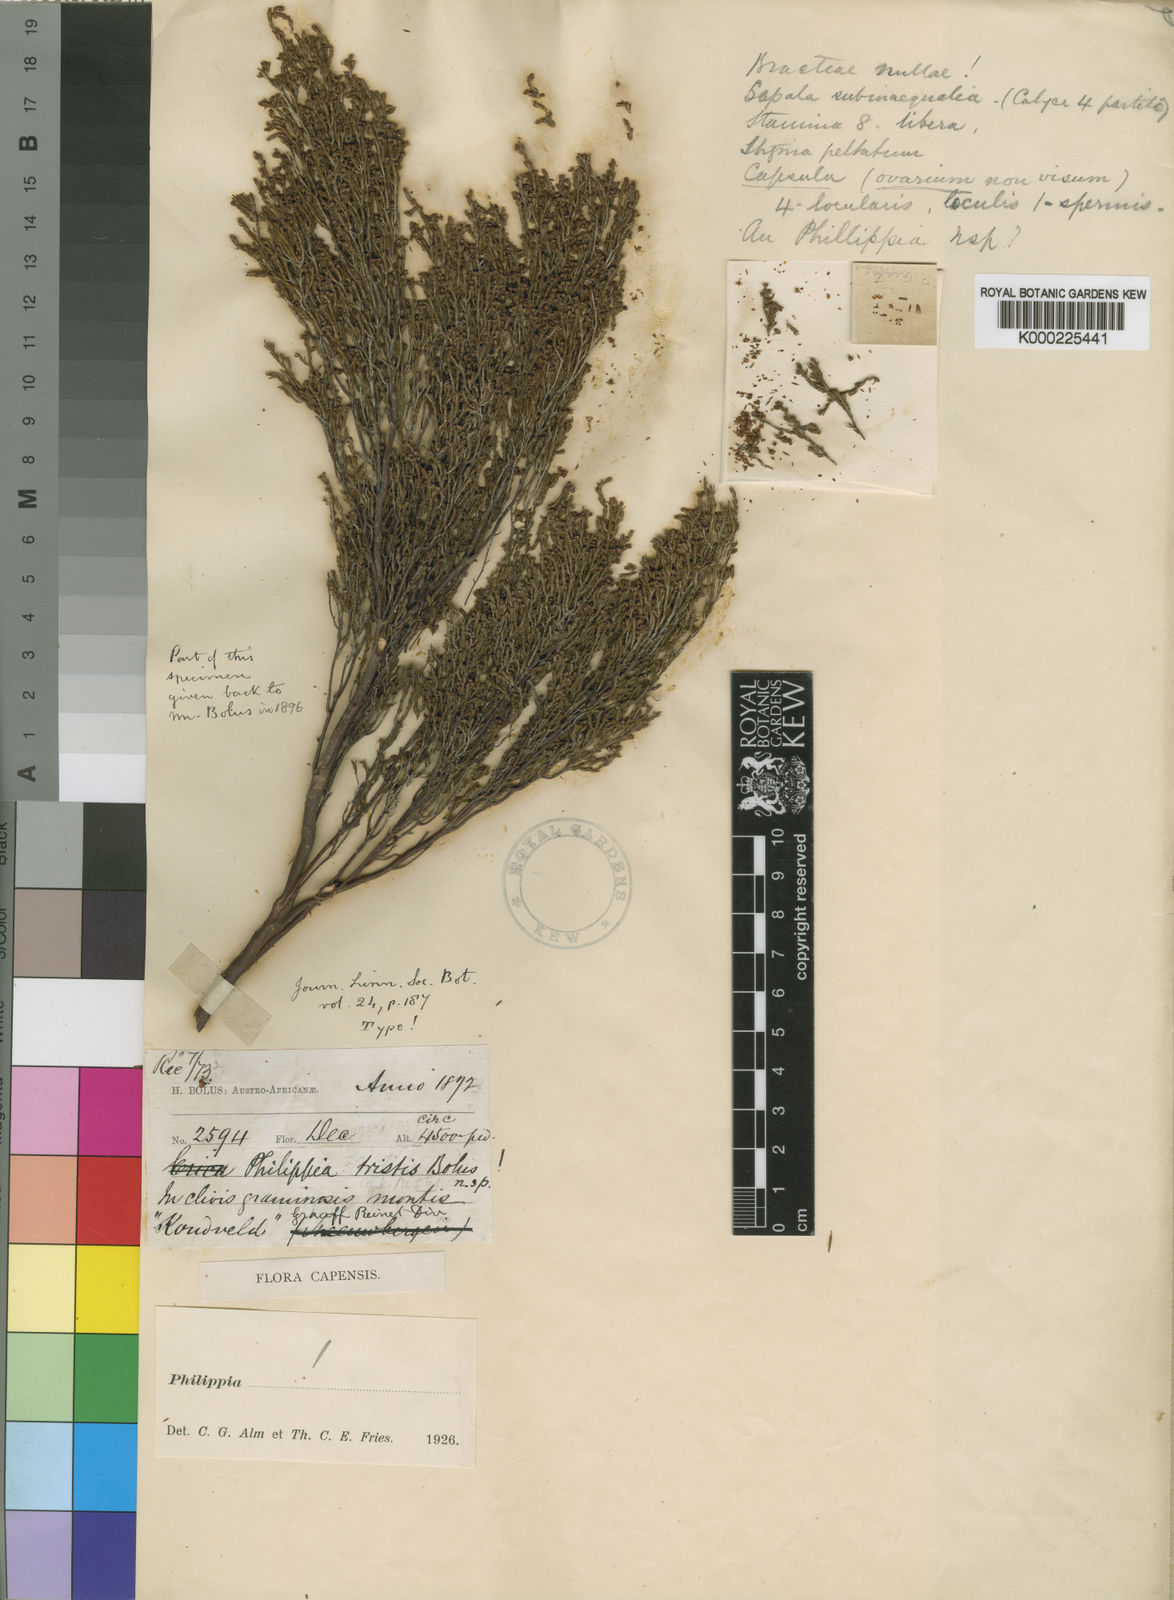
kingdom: Plantae
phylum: Tracheophyta
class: Magnoliopsida
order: Ericales
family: Ericaceae
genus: Erica
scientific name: Erica caespitosa
